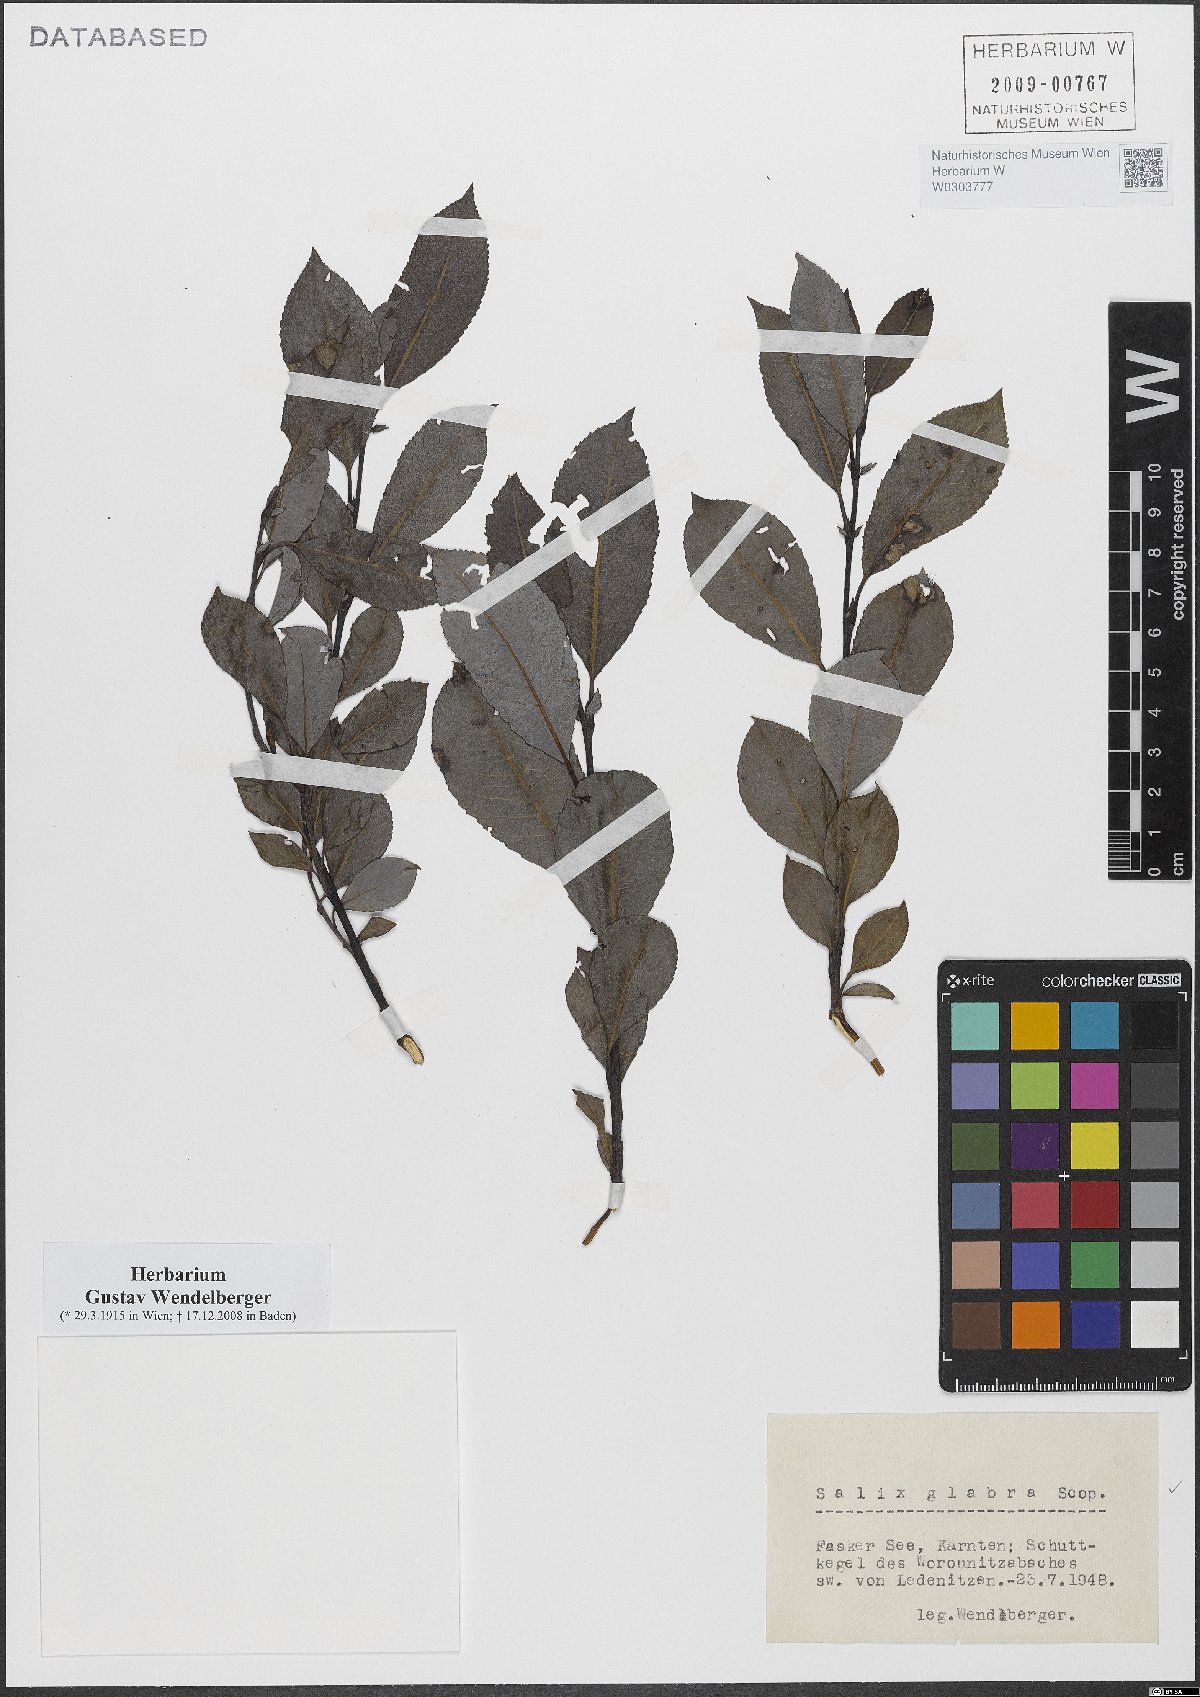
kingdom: Plantae
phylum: Tracheophyta
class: Magnoliopsida
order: Malpighiales
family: Salicaceae
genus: Salix
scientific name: Salix glabra
